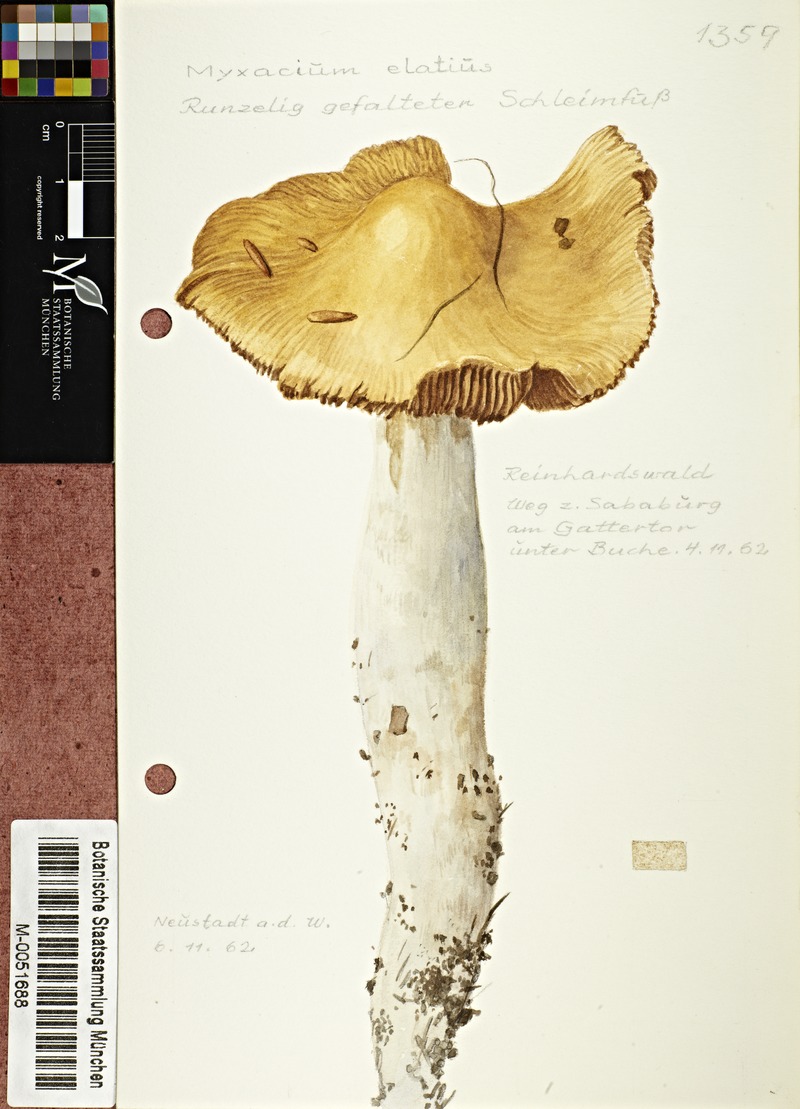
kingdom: Fungi
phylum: Basidiomycota
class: Agaricomycetes
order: Agaricales
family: Cortinariaceae
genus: Cortinarius
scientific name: Cortinarius elatior
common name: Tall webcap
